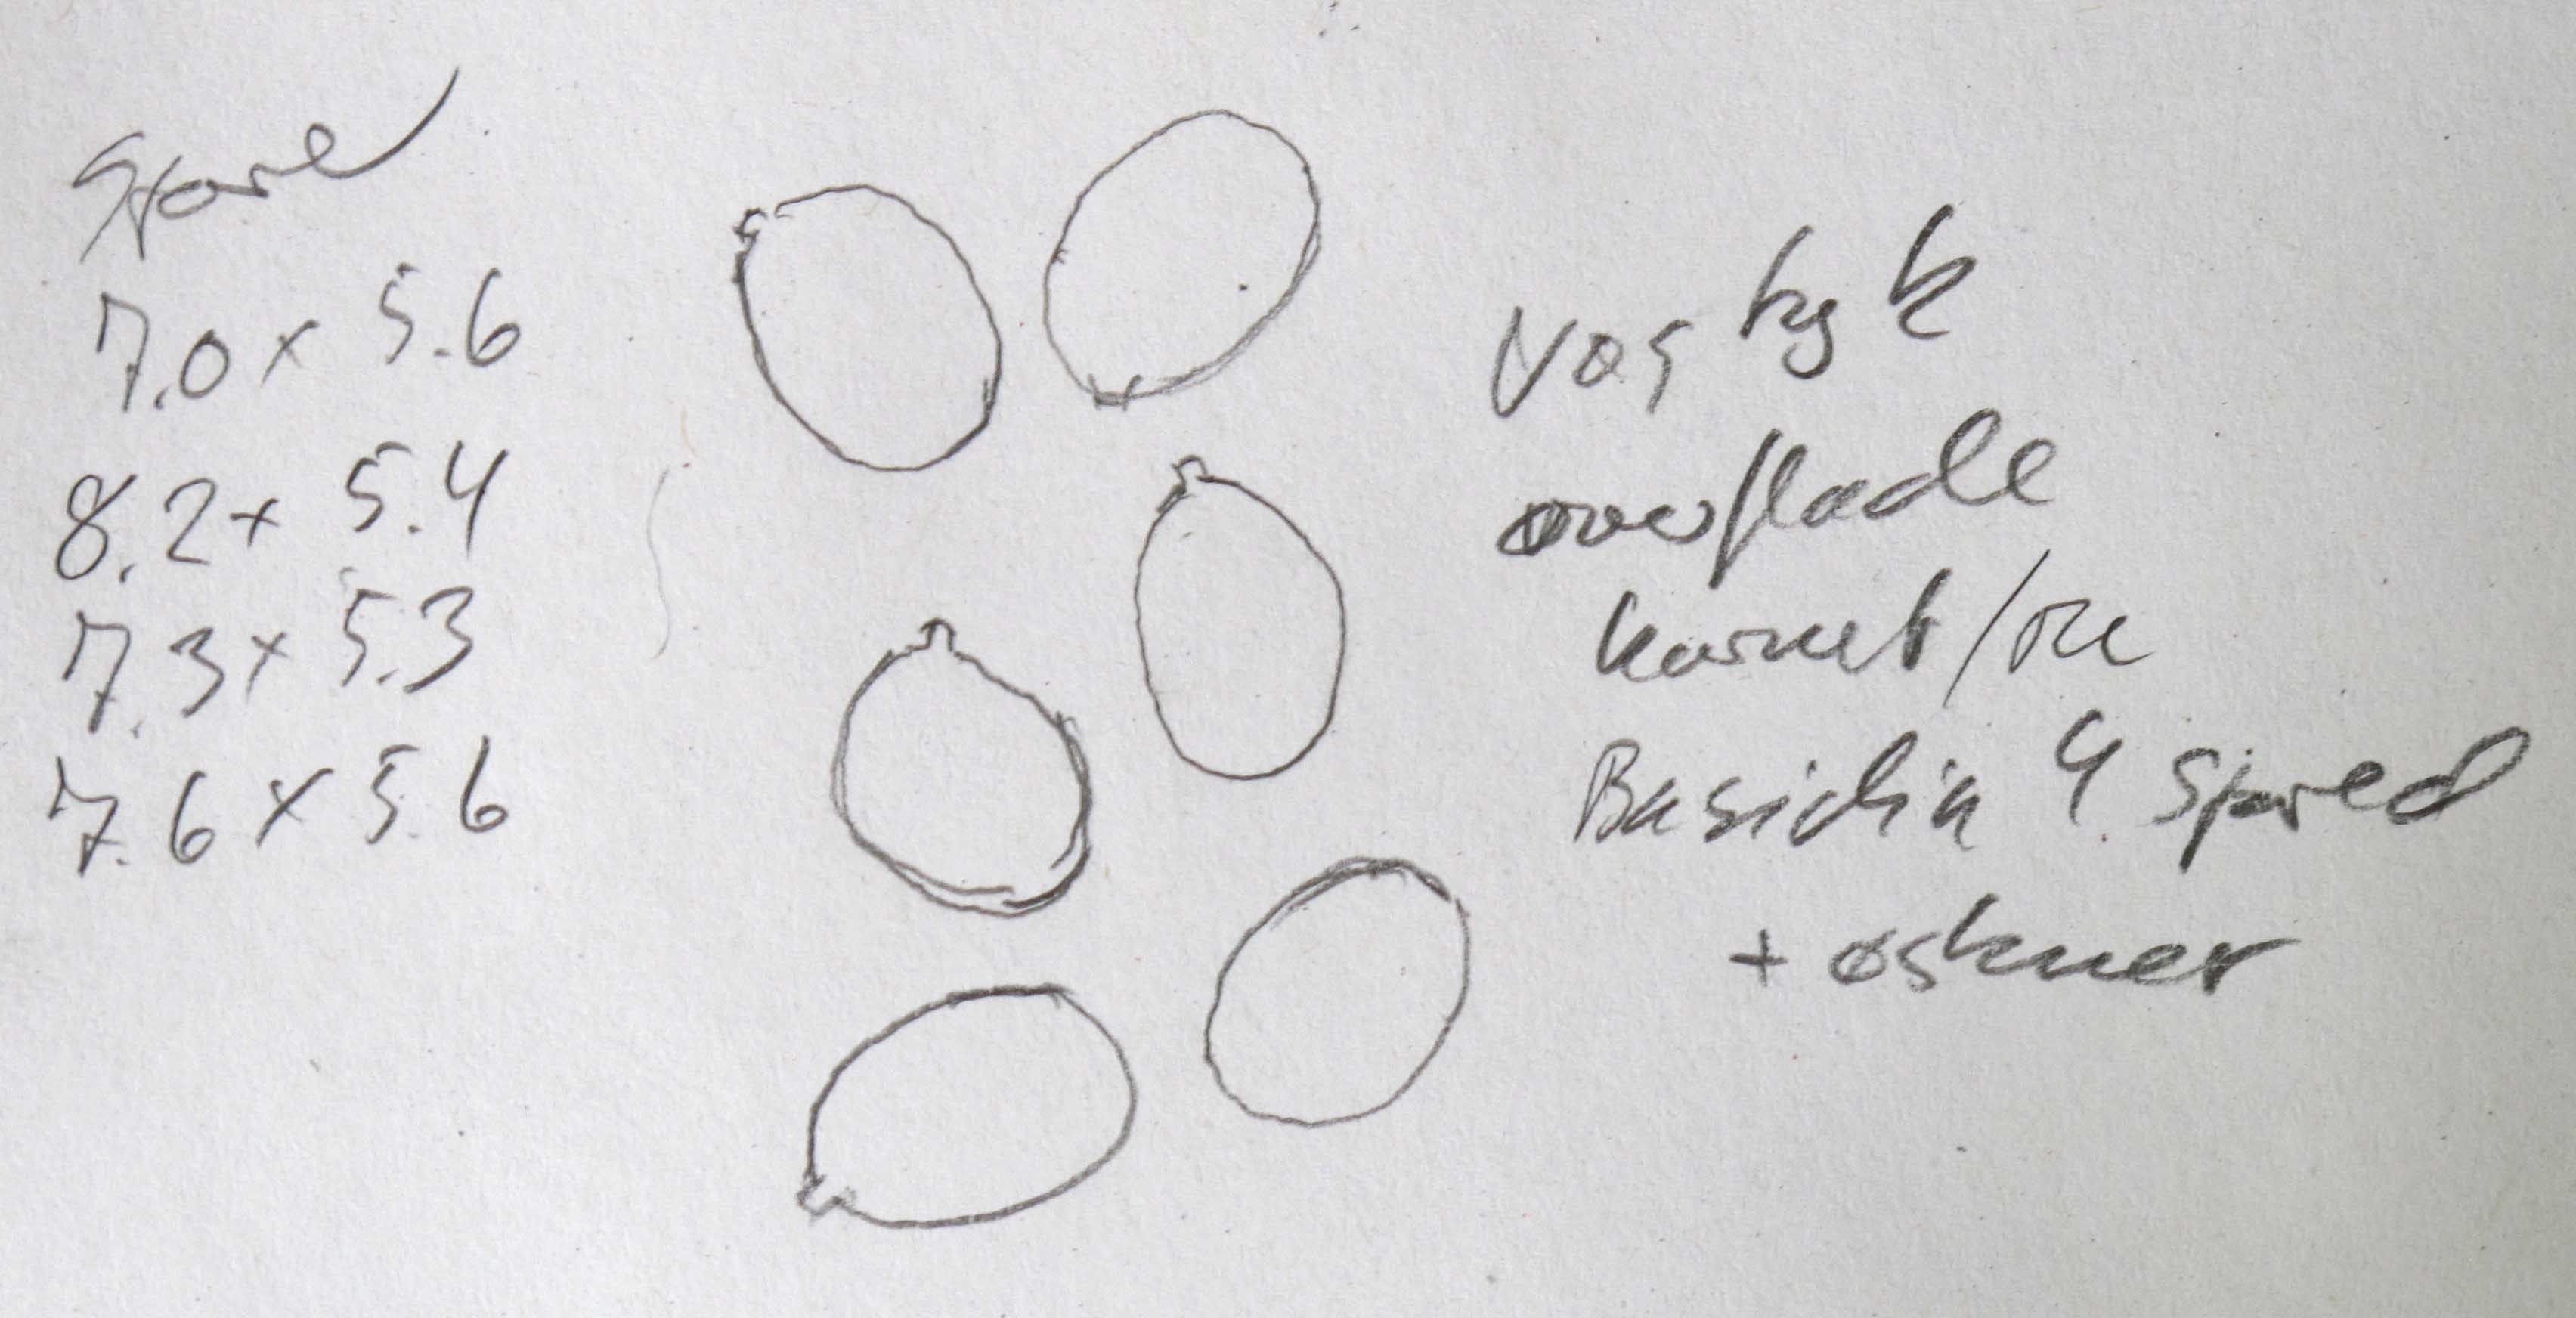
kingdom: Fungi
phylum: Basidiomycota
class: Agaricomycetes
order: Agaricales
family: Cortinariaceae
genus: Cortinarius
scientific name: Cortinarius parvannulatus
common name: krave-slørhat
